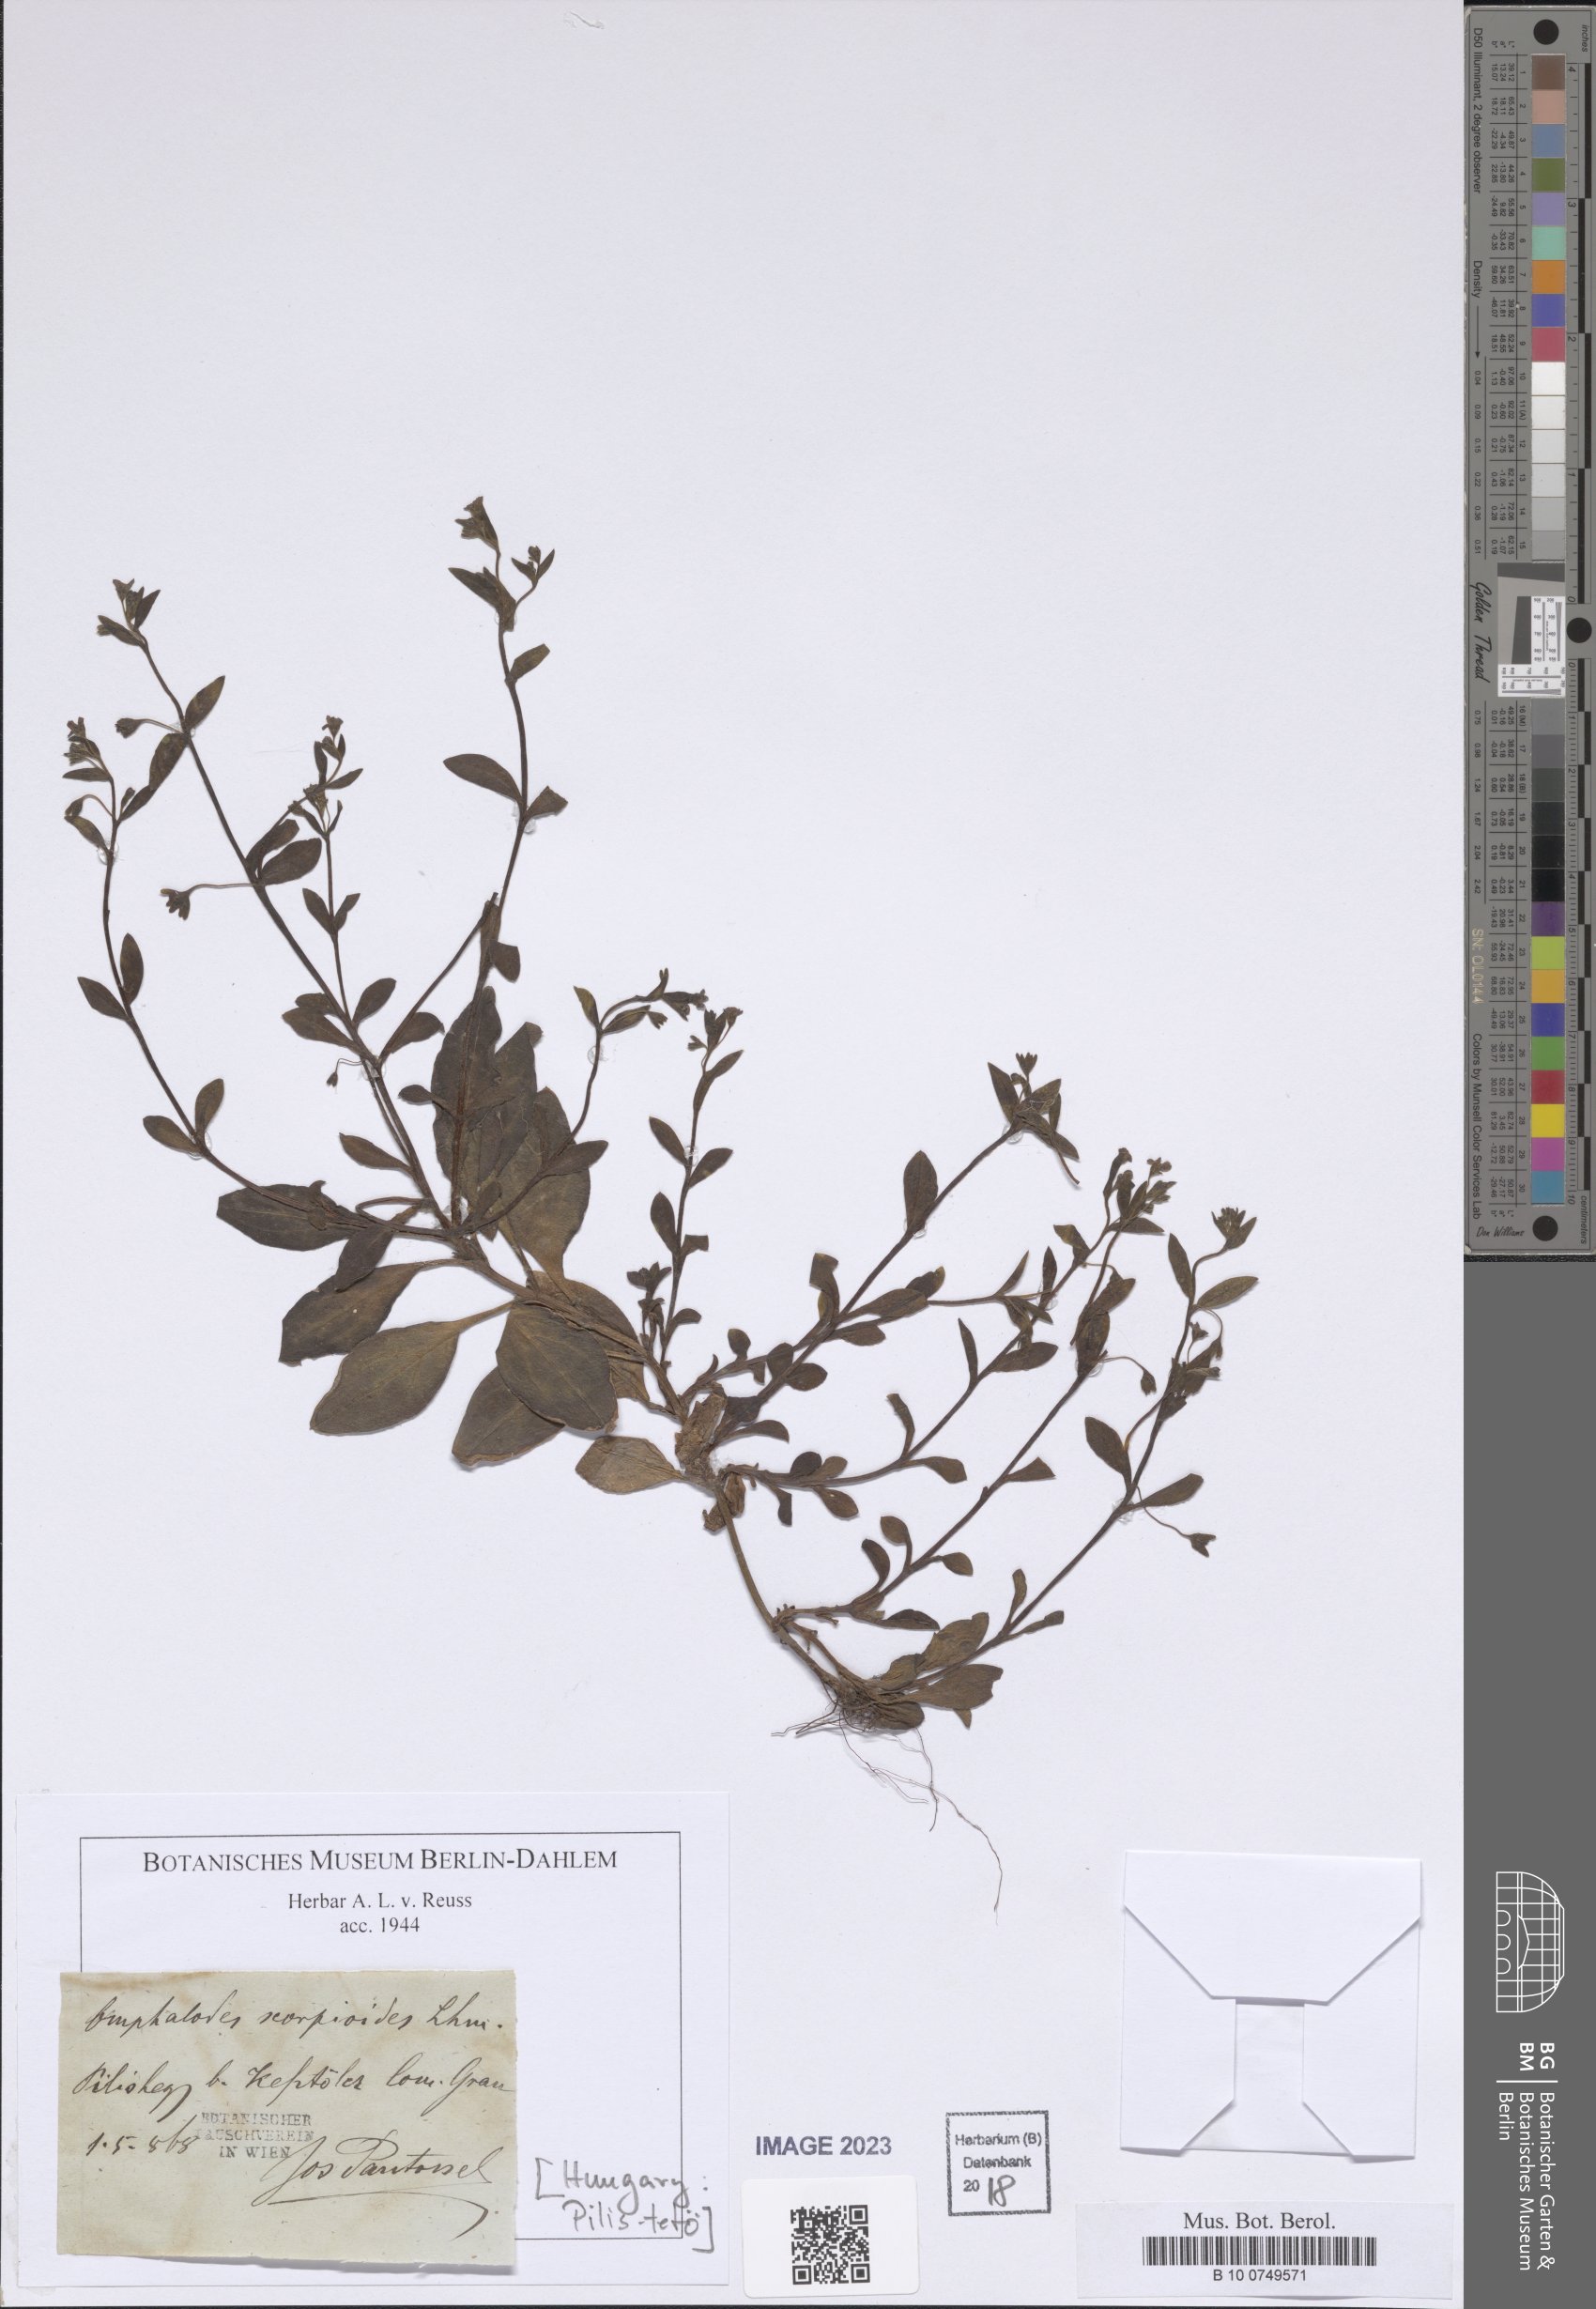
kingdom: Plantae
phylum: Tracheophyta
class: Magnoliopsida
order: Boraginales
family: Boraginaceae
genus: Memoremea
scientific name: Memoremea scorpioides
